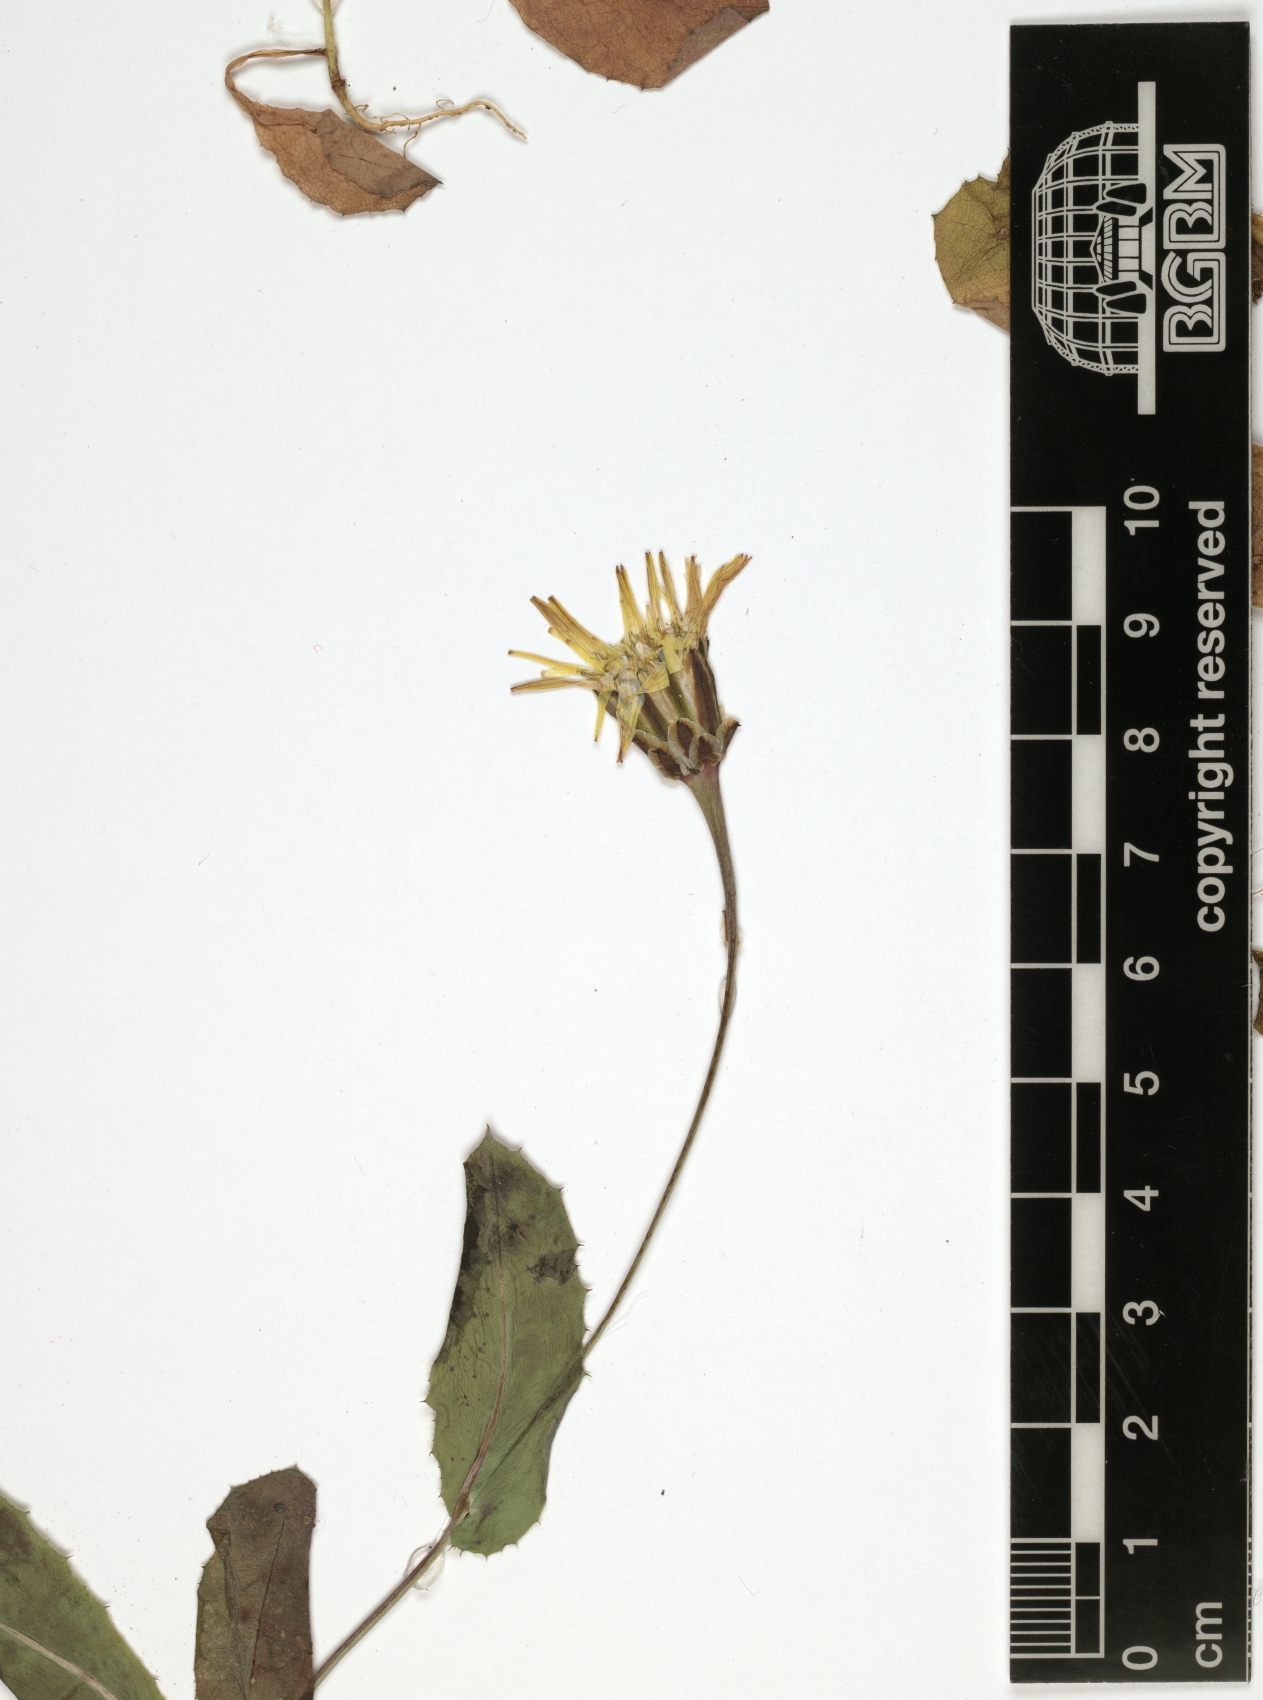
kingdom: Plantae
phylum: Tracheophyta
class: Magnoliopsida
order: Asterales
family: Asteraceae
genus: Reichardia
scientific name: Reichardia tingitana
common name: Reichardia
